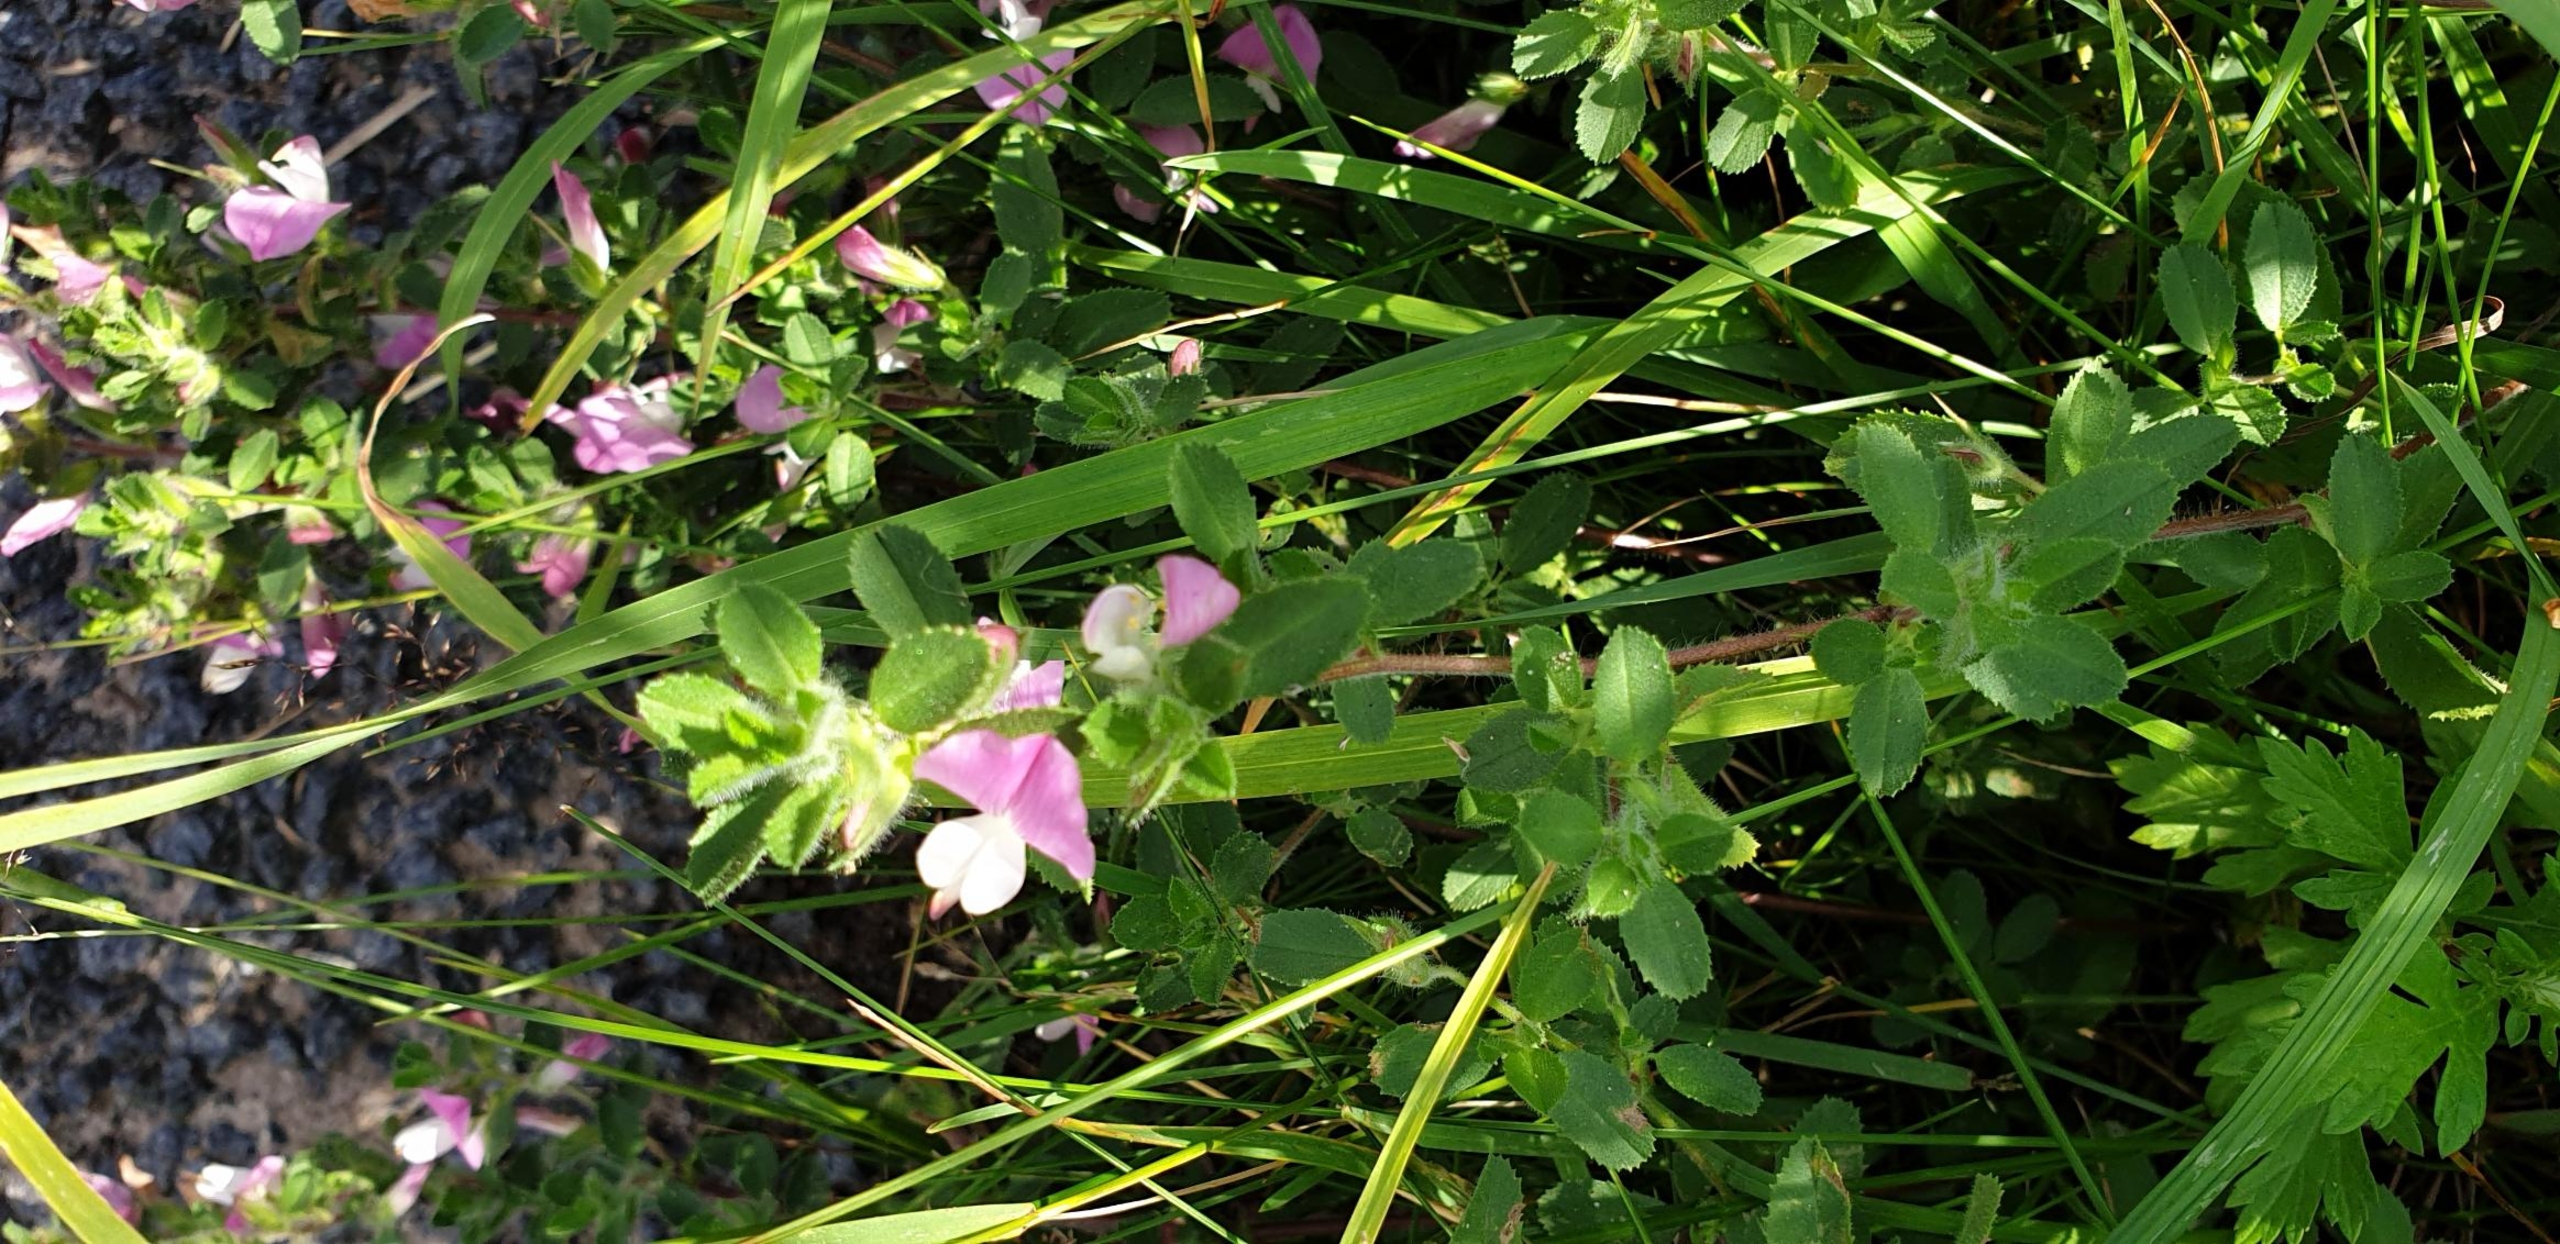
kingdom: Plantae
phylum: Tracheophyta
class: Magnoliopsida
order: Fabales
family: Fabaceae
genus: Ononis
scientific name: Ononis spinosa
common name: Mark-krageklo
